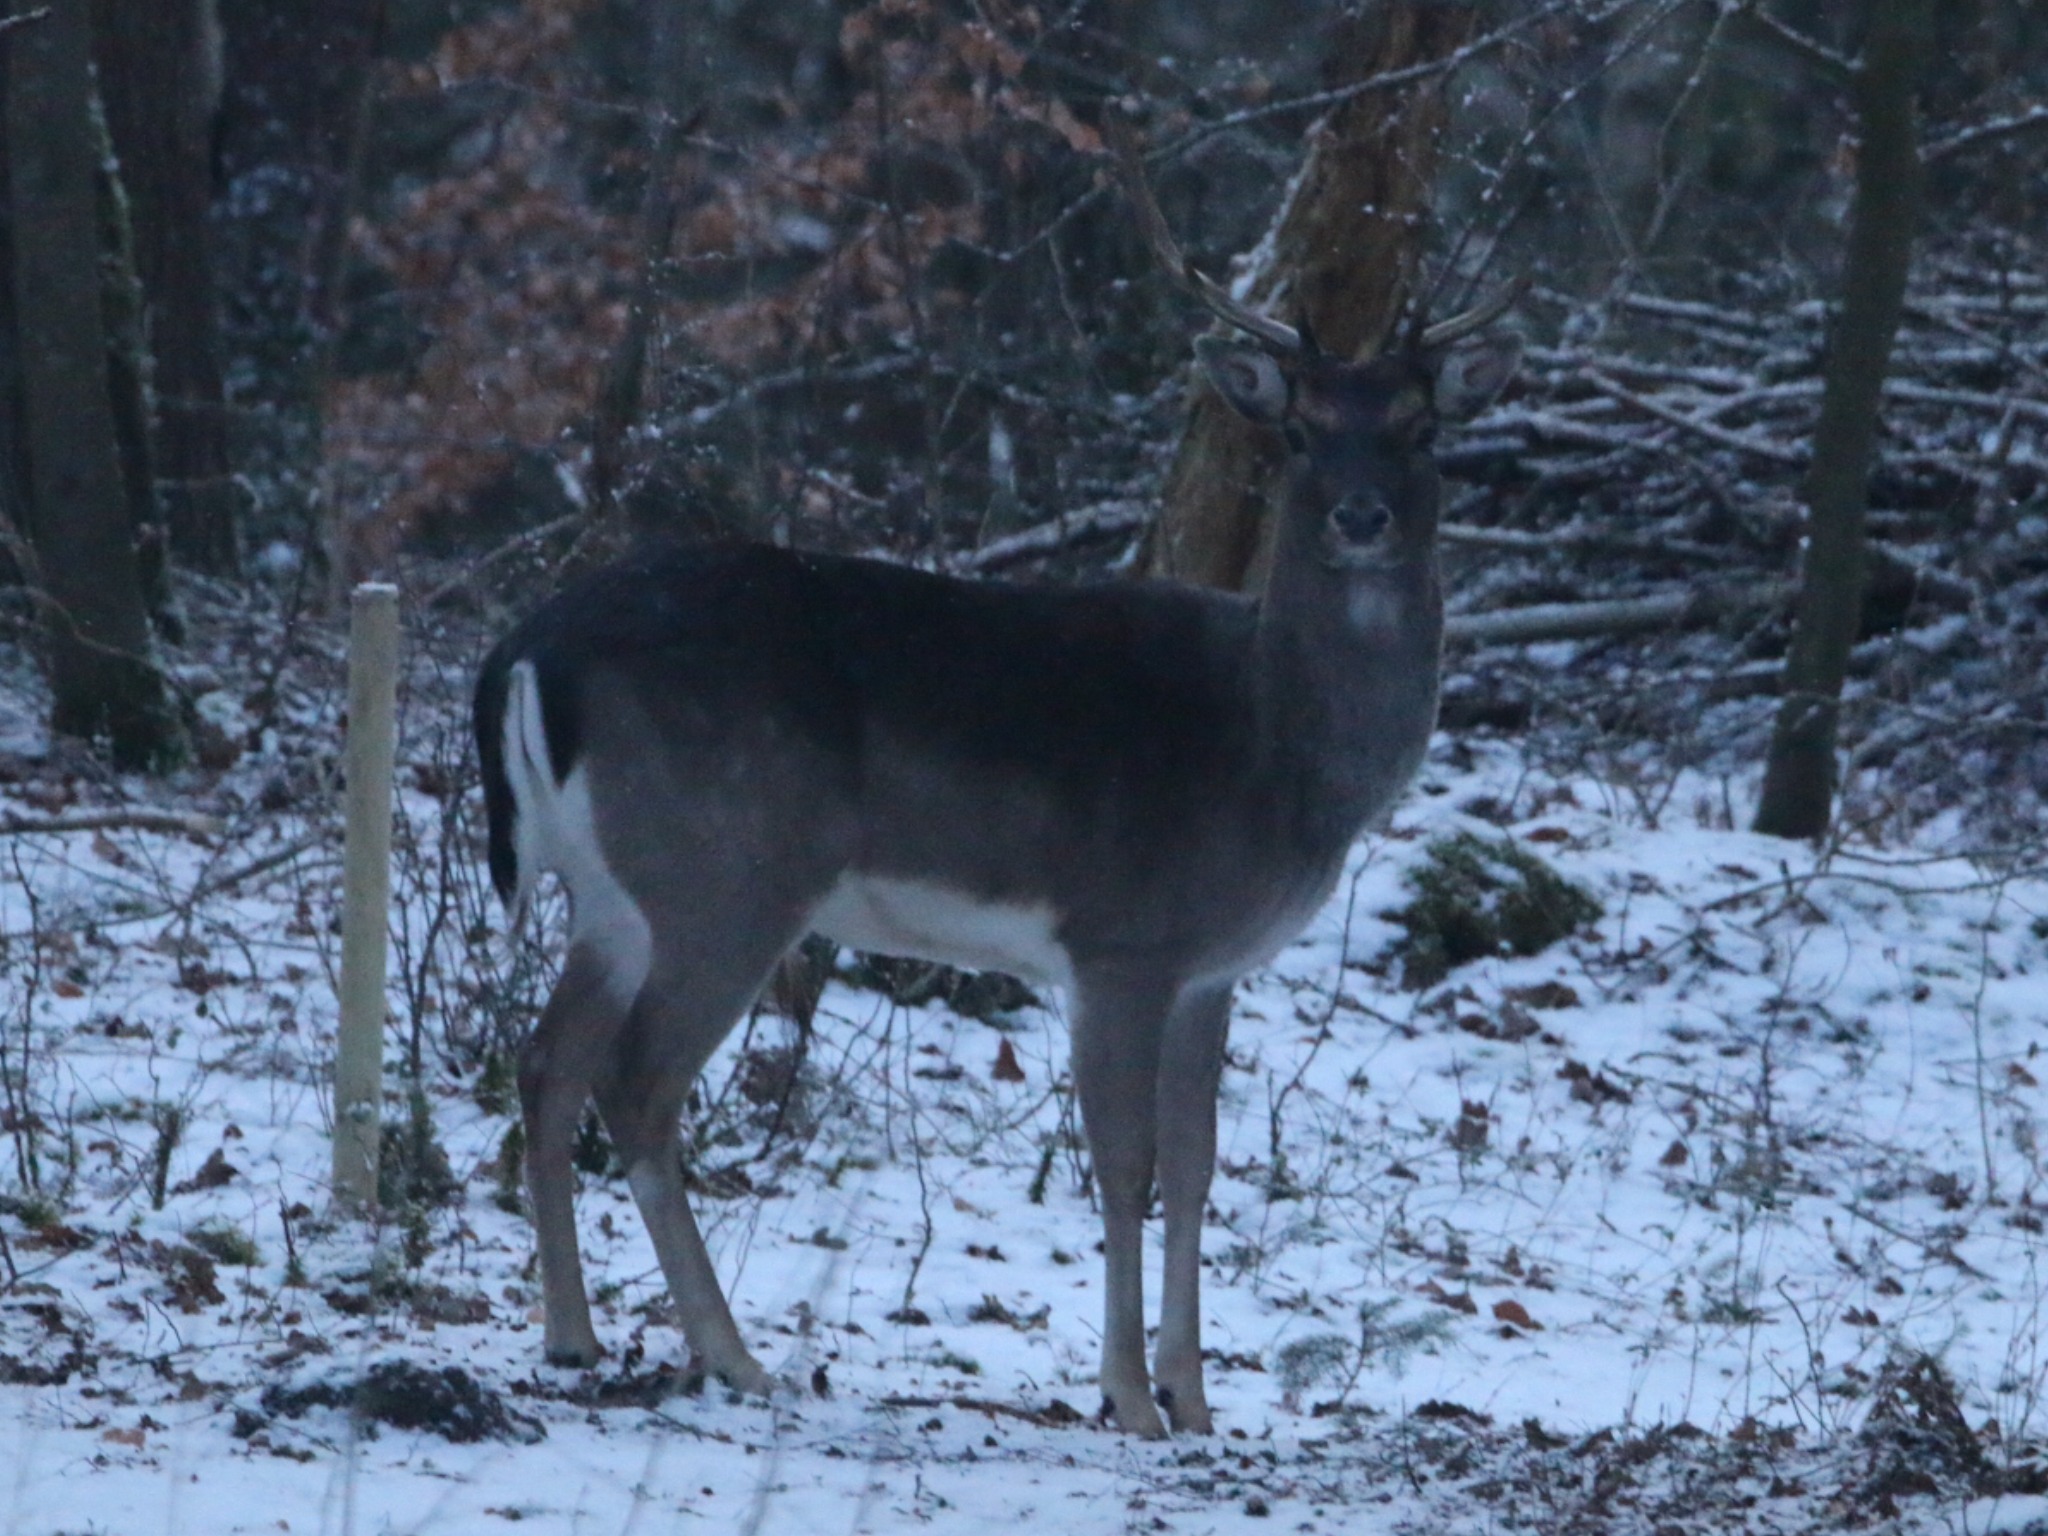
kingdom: Animalia
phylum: Chordata
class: Mammalia
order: Artiodactyla
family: Cervidae
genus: Dama
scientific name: Dama dama
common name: Dådyr
